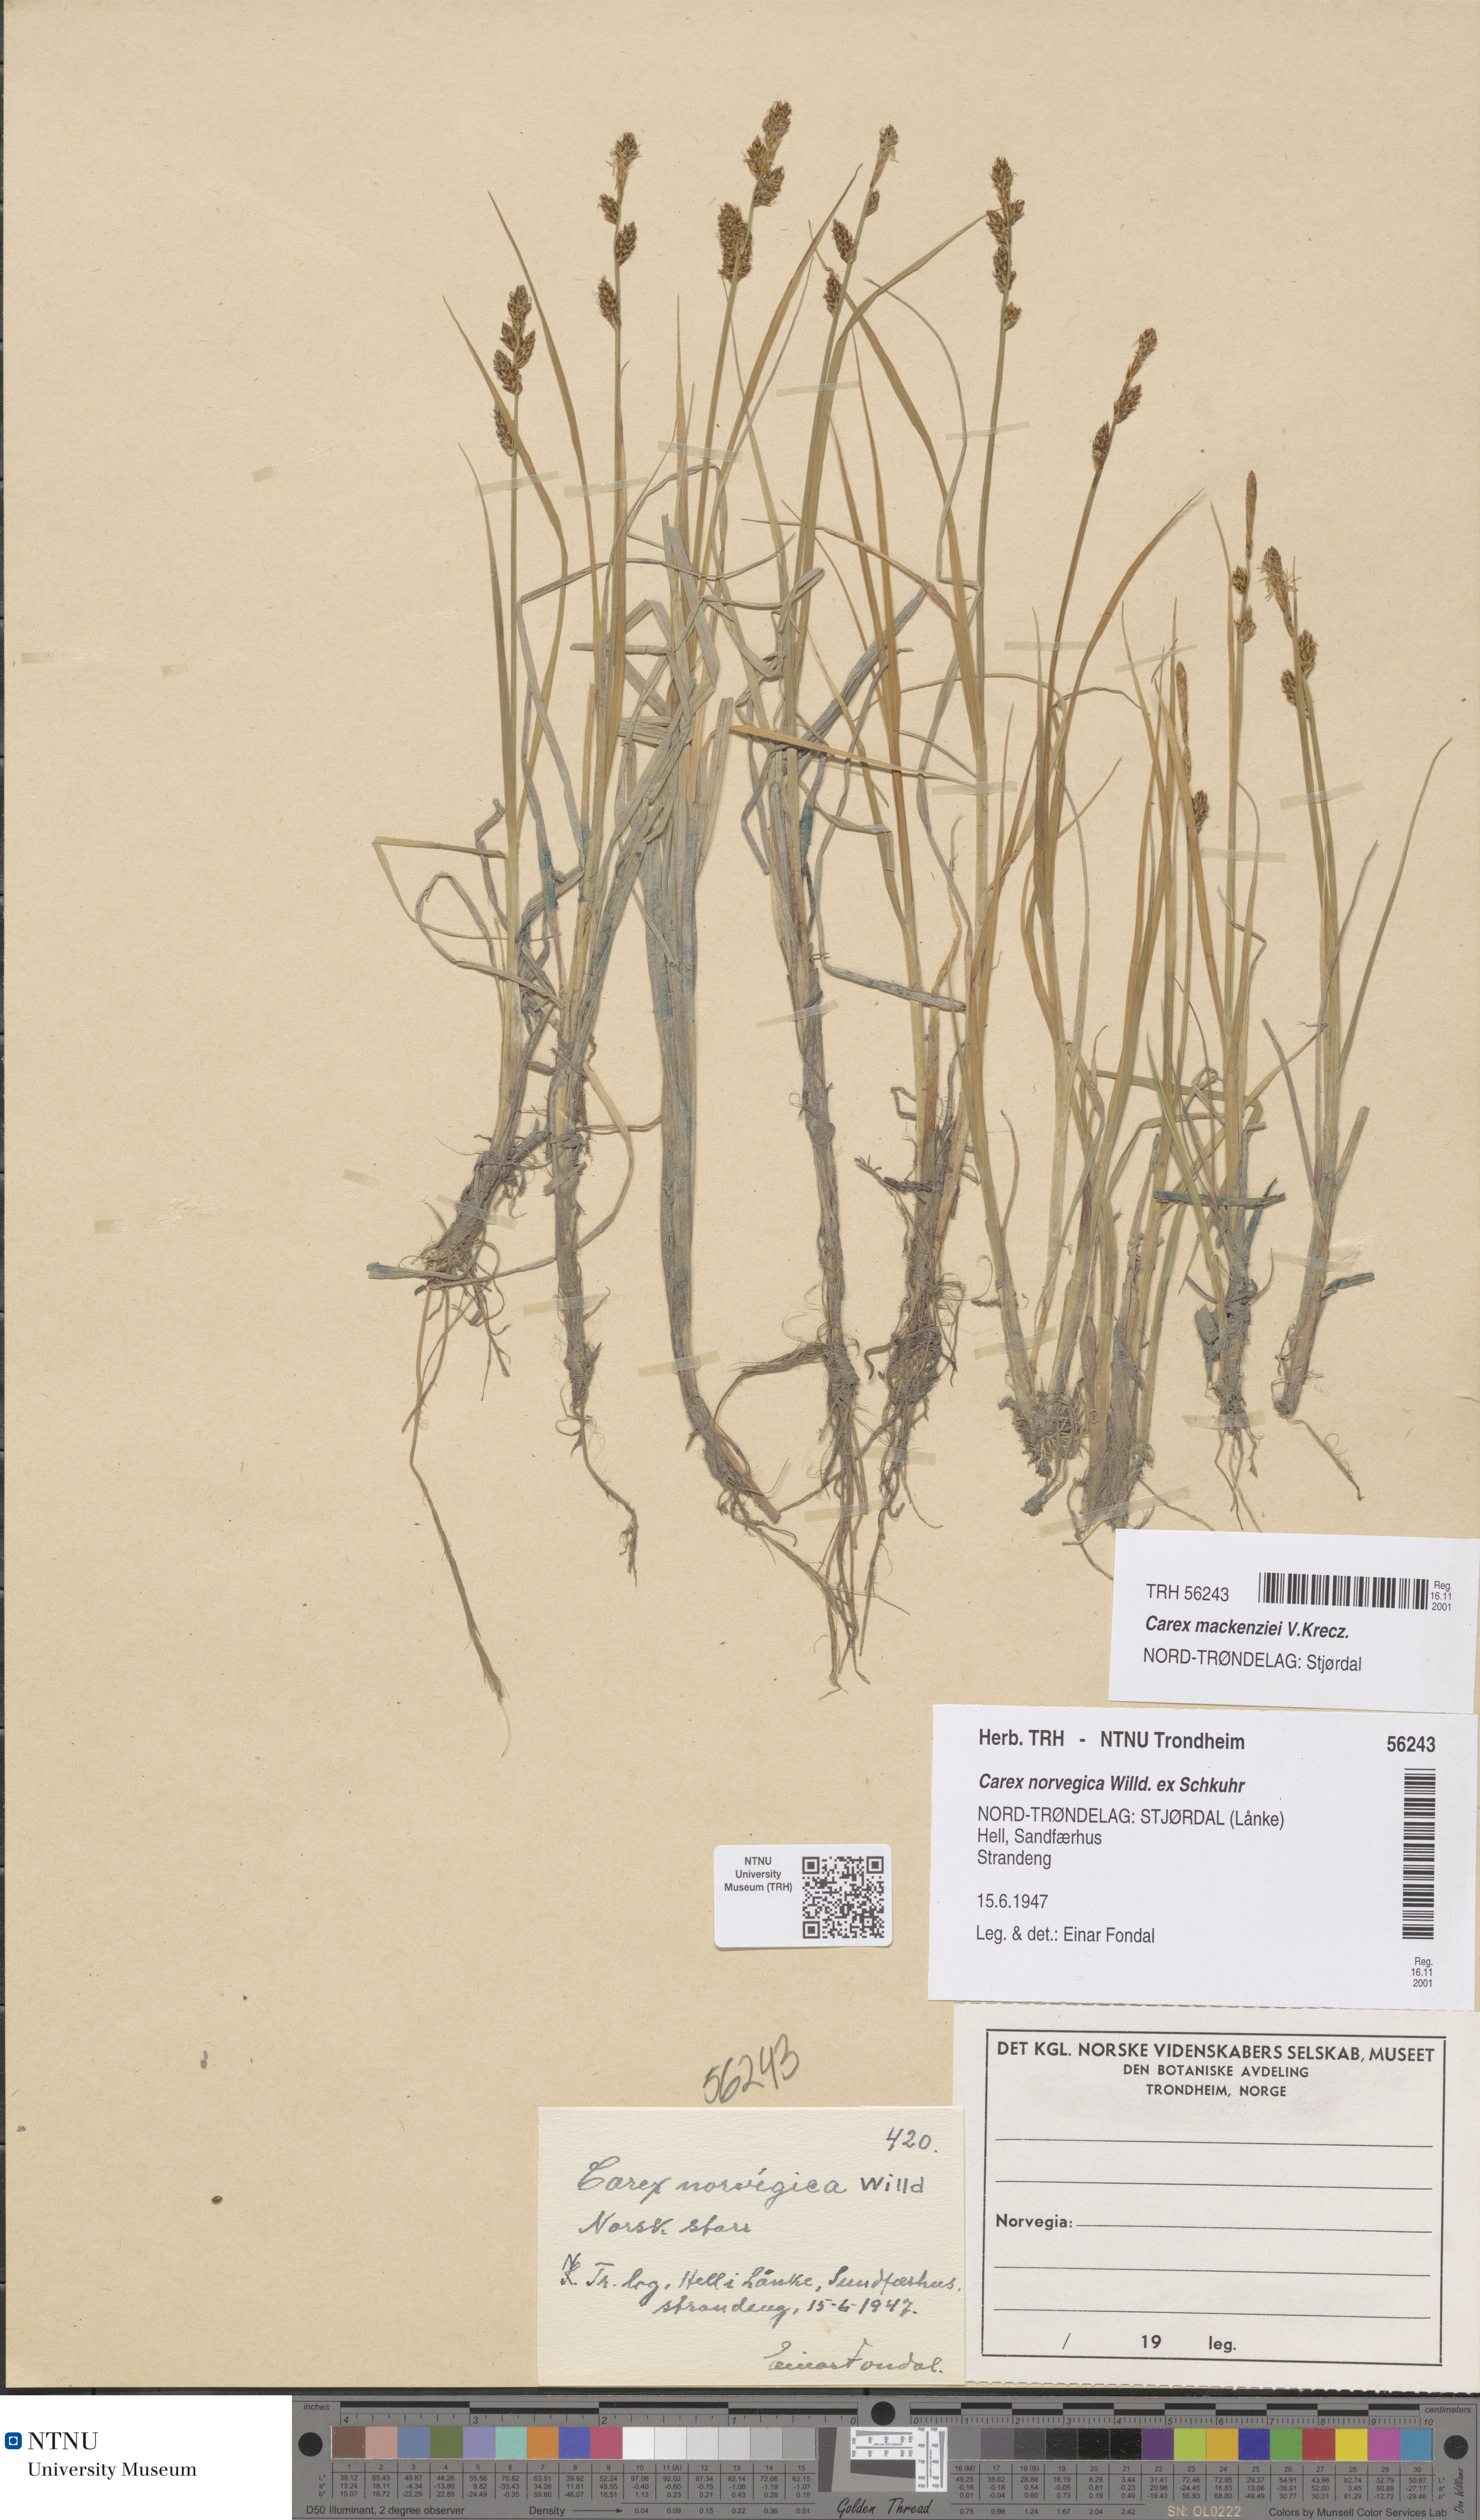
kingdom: Plantae
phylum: Tracheophyta
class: Liliopsida
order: Poales
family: Cyperaceae
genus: Carex
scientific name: Carex mackenziei
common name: Mackenzie's sedge
